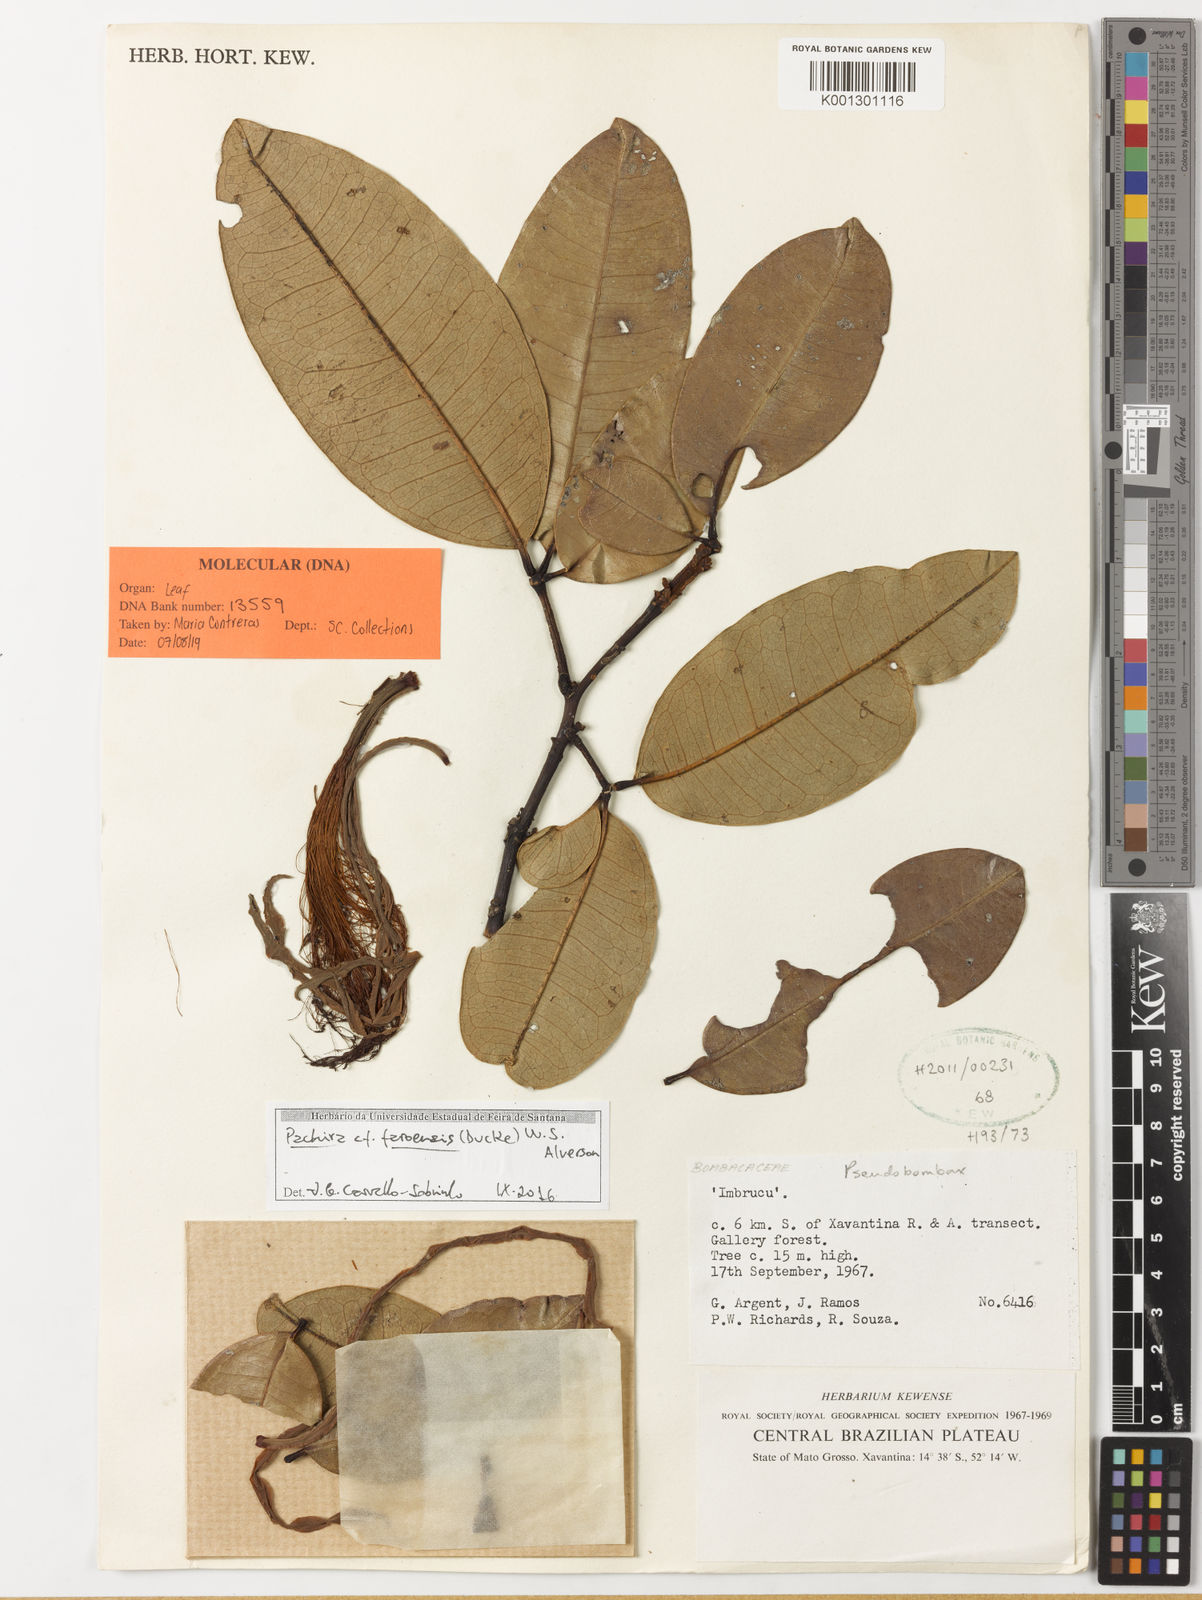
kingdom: Plantae
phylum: Tracheophyta
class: Magnoliopsida
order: Malvales
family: Malvaceae
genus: Pachira
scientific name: Pachira brevipes
